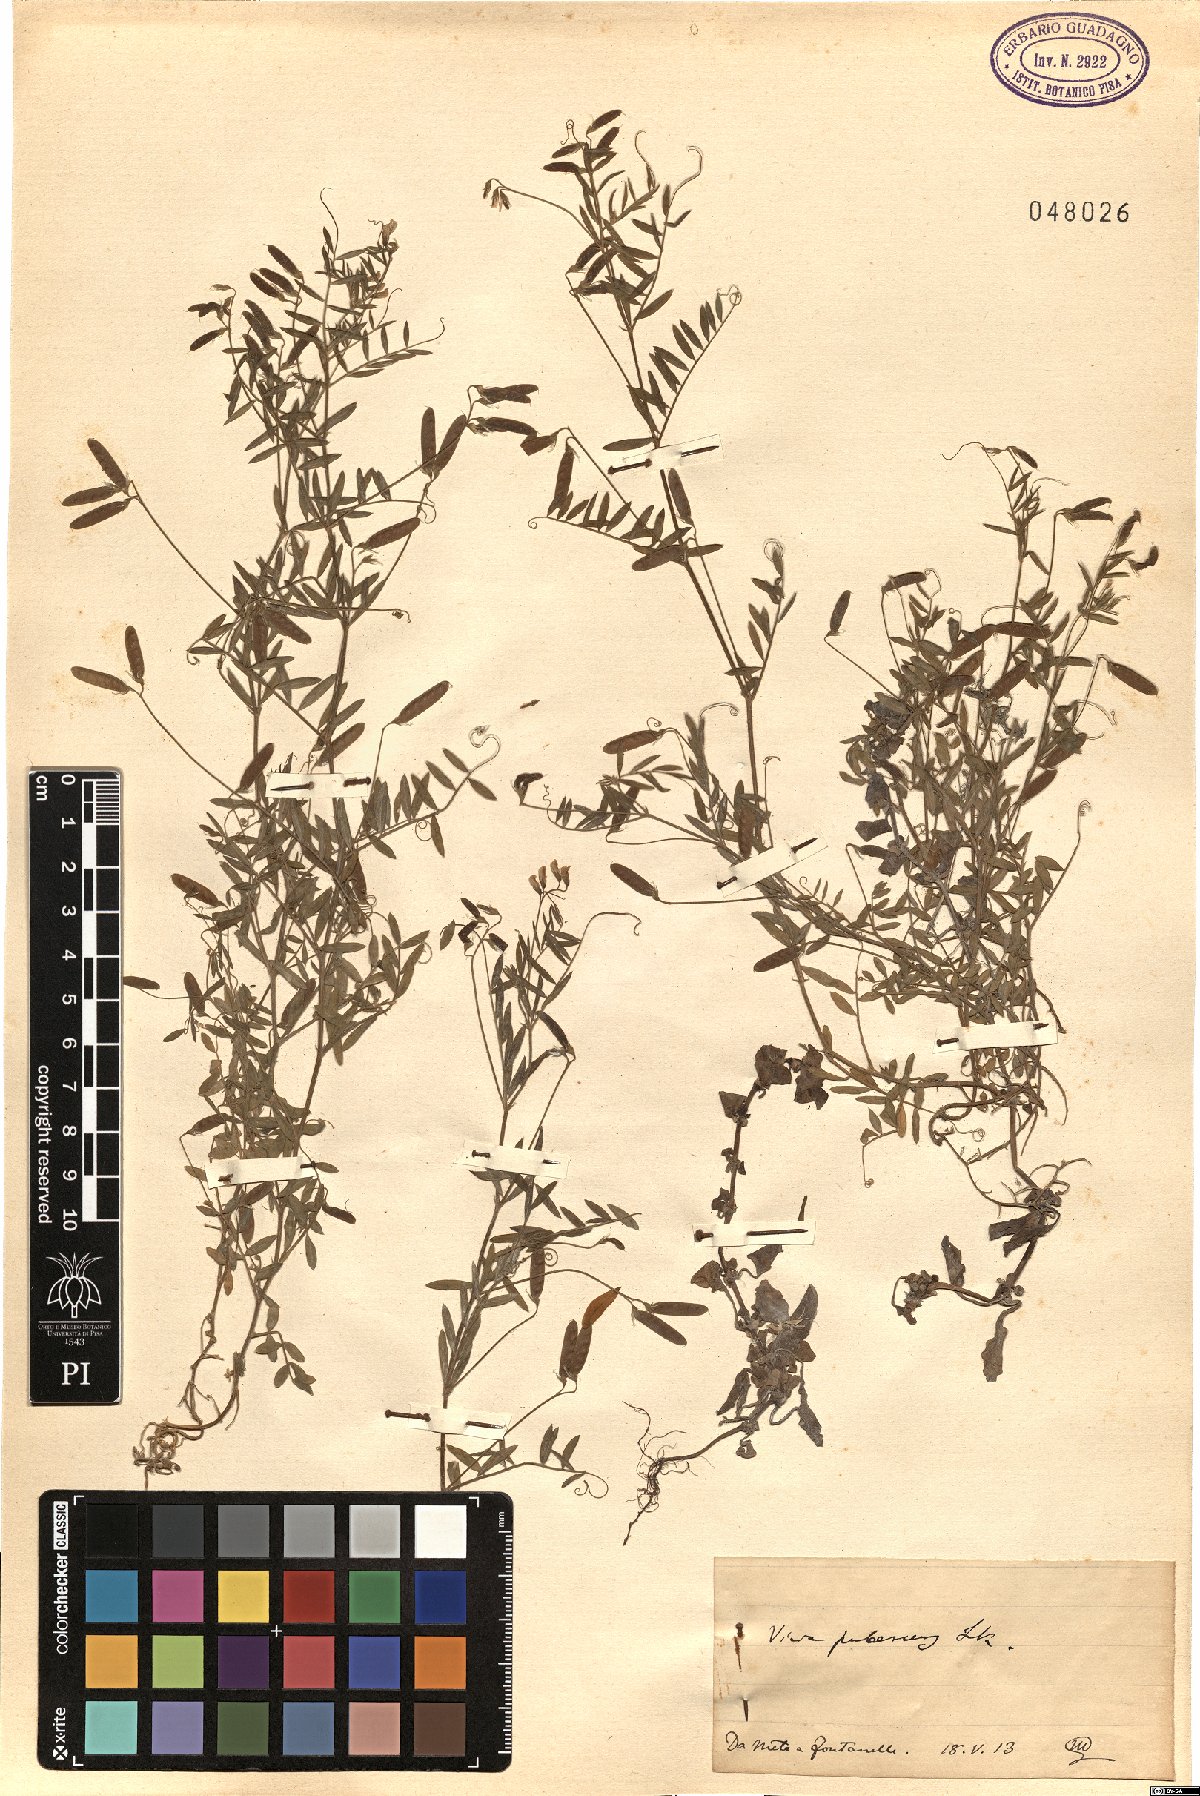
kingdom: Plantae
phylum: Tracheophyta
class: Magnoliopsida
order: Fabales
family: Fabaceae
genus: Vicia
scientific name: Vicia pubescens
